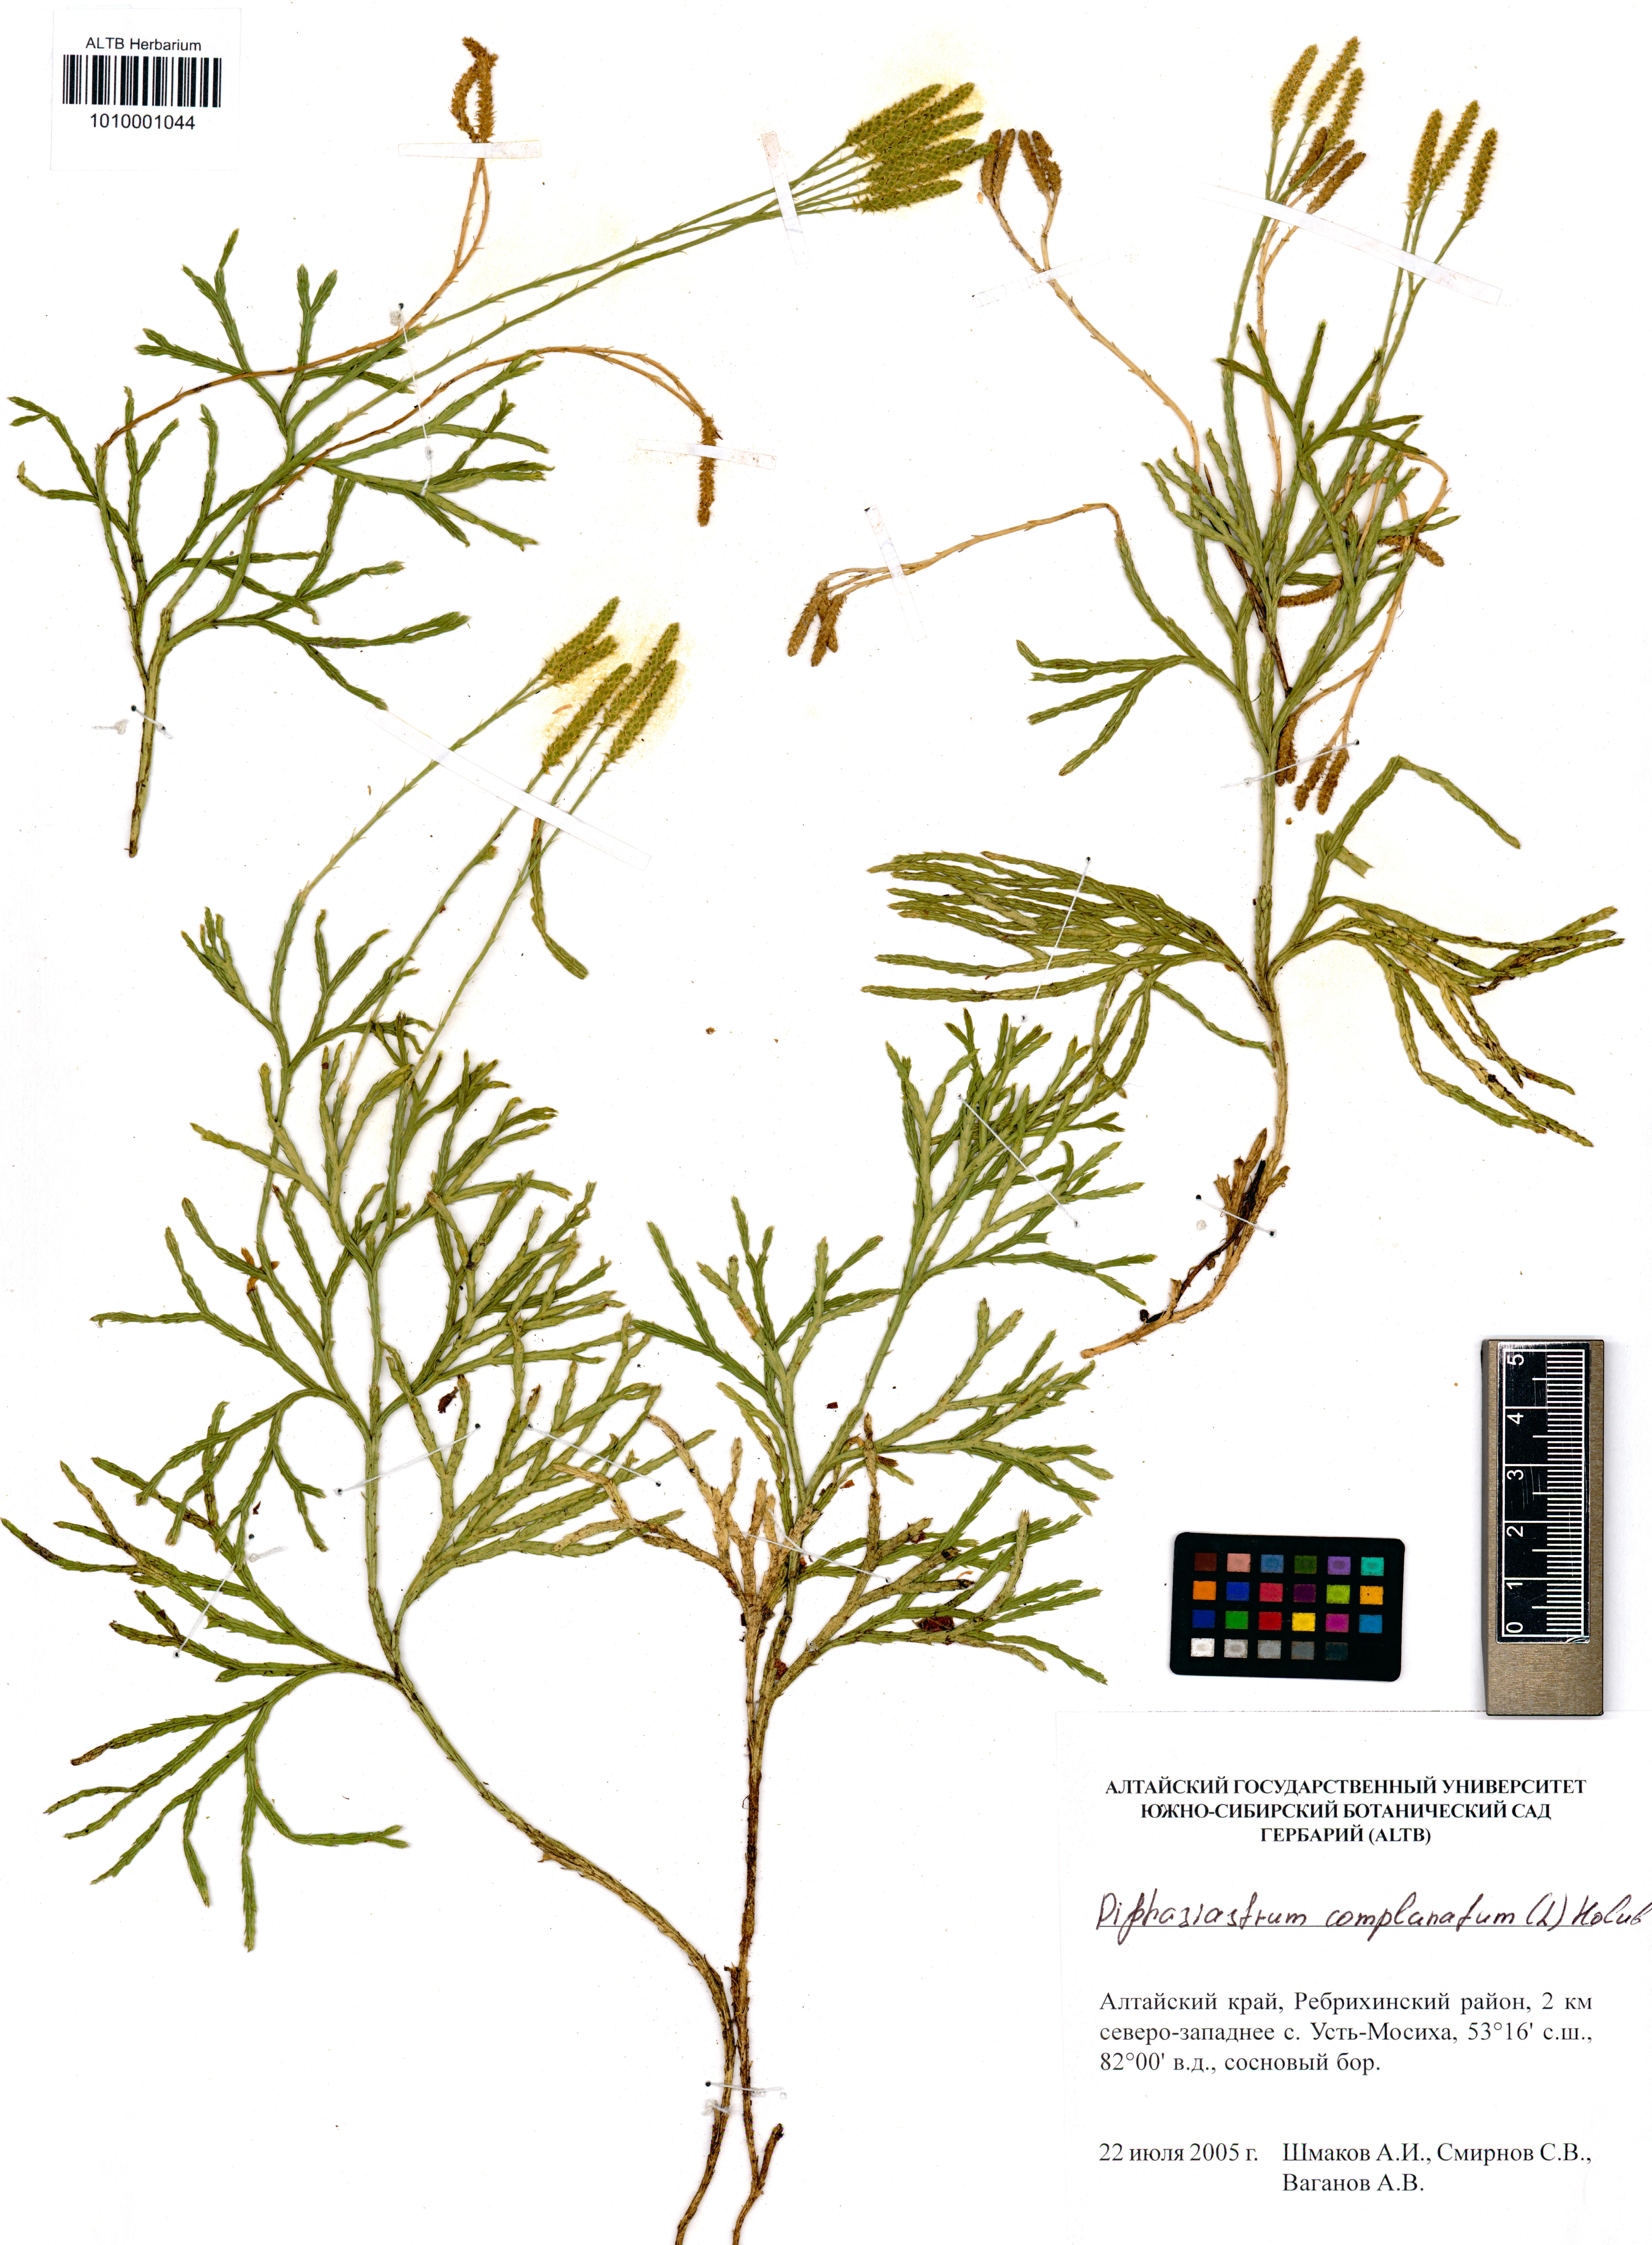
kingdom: Plantae
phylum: Tracheophyta
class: Lycopodiopsida
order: Lycopodiales
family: Lycopodiaceae
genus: Diphasiastrum
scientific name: Diphasiastrum complanatum
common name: Northern running-pine
